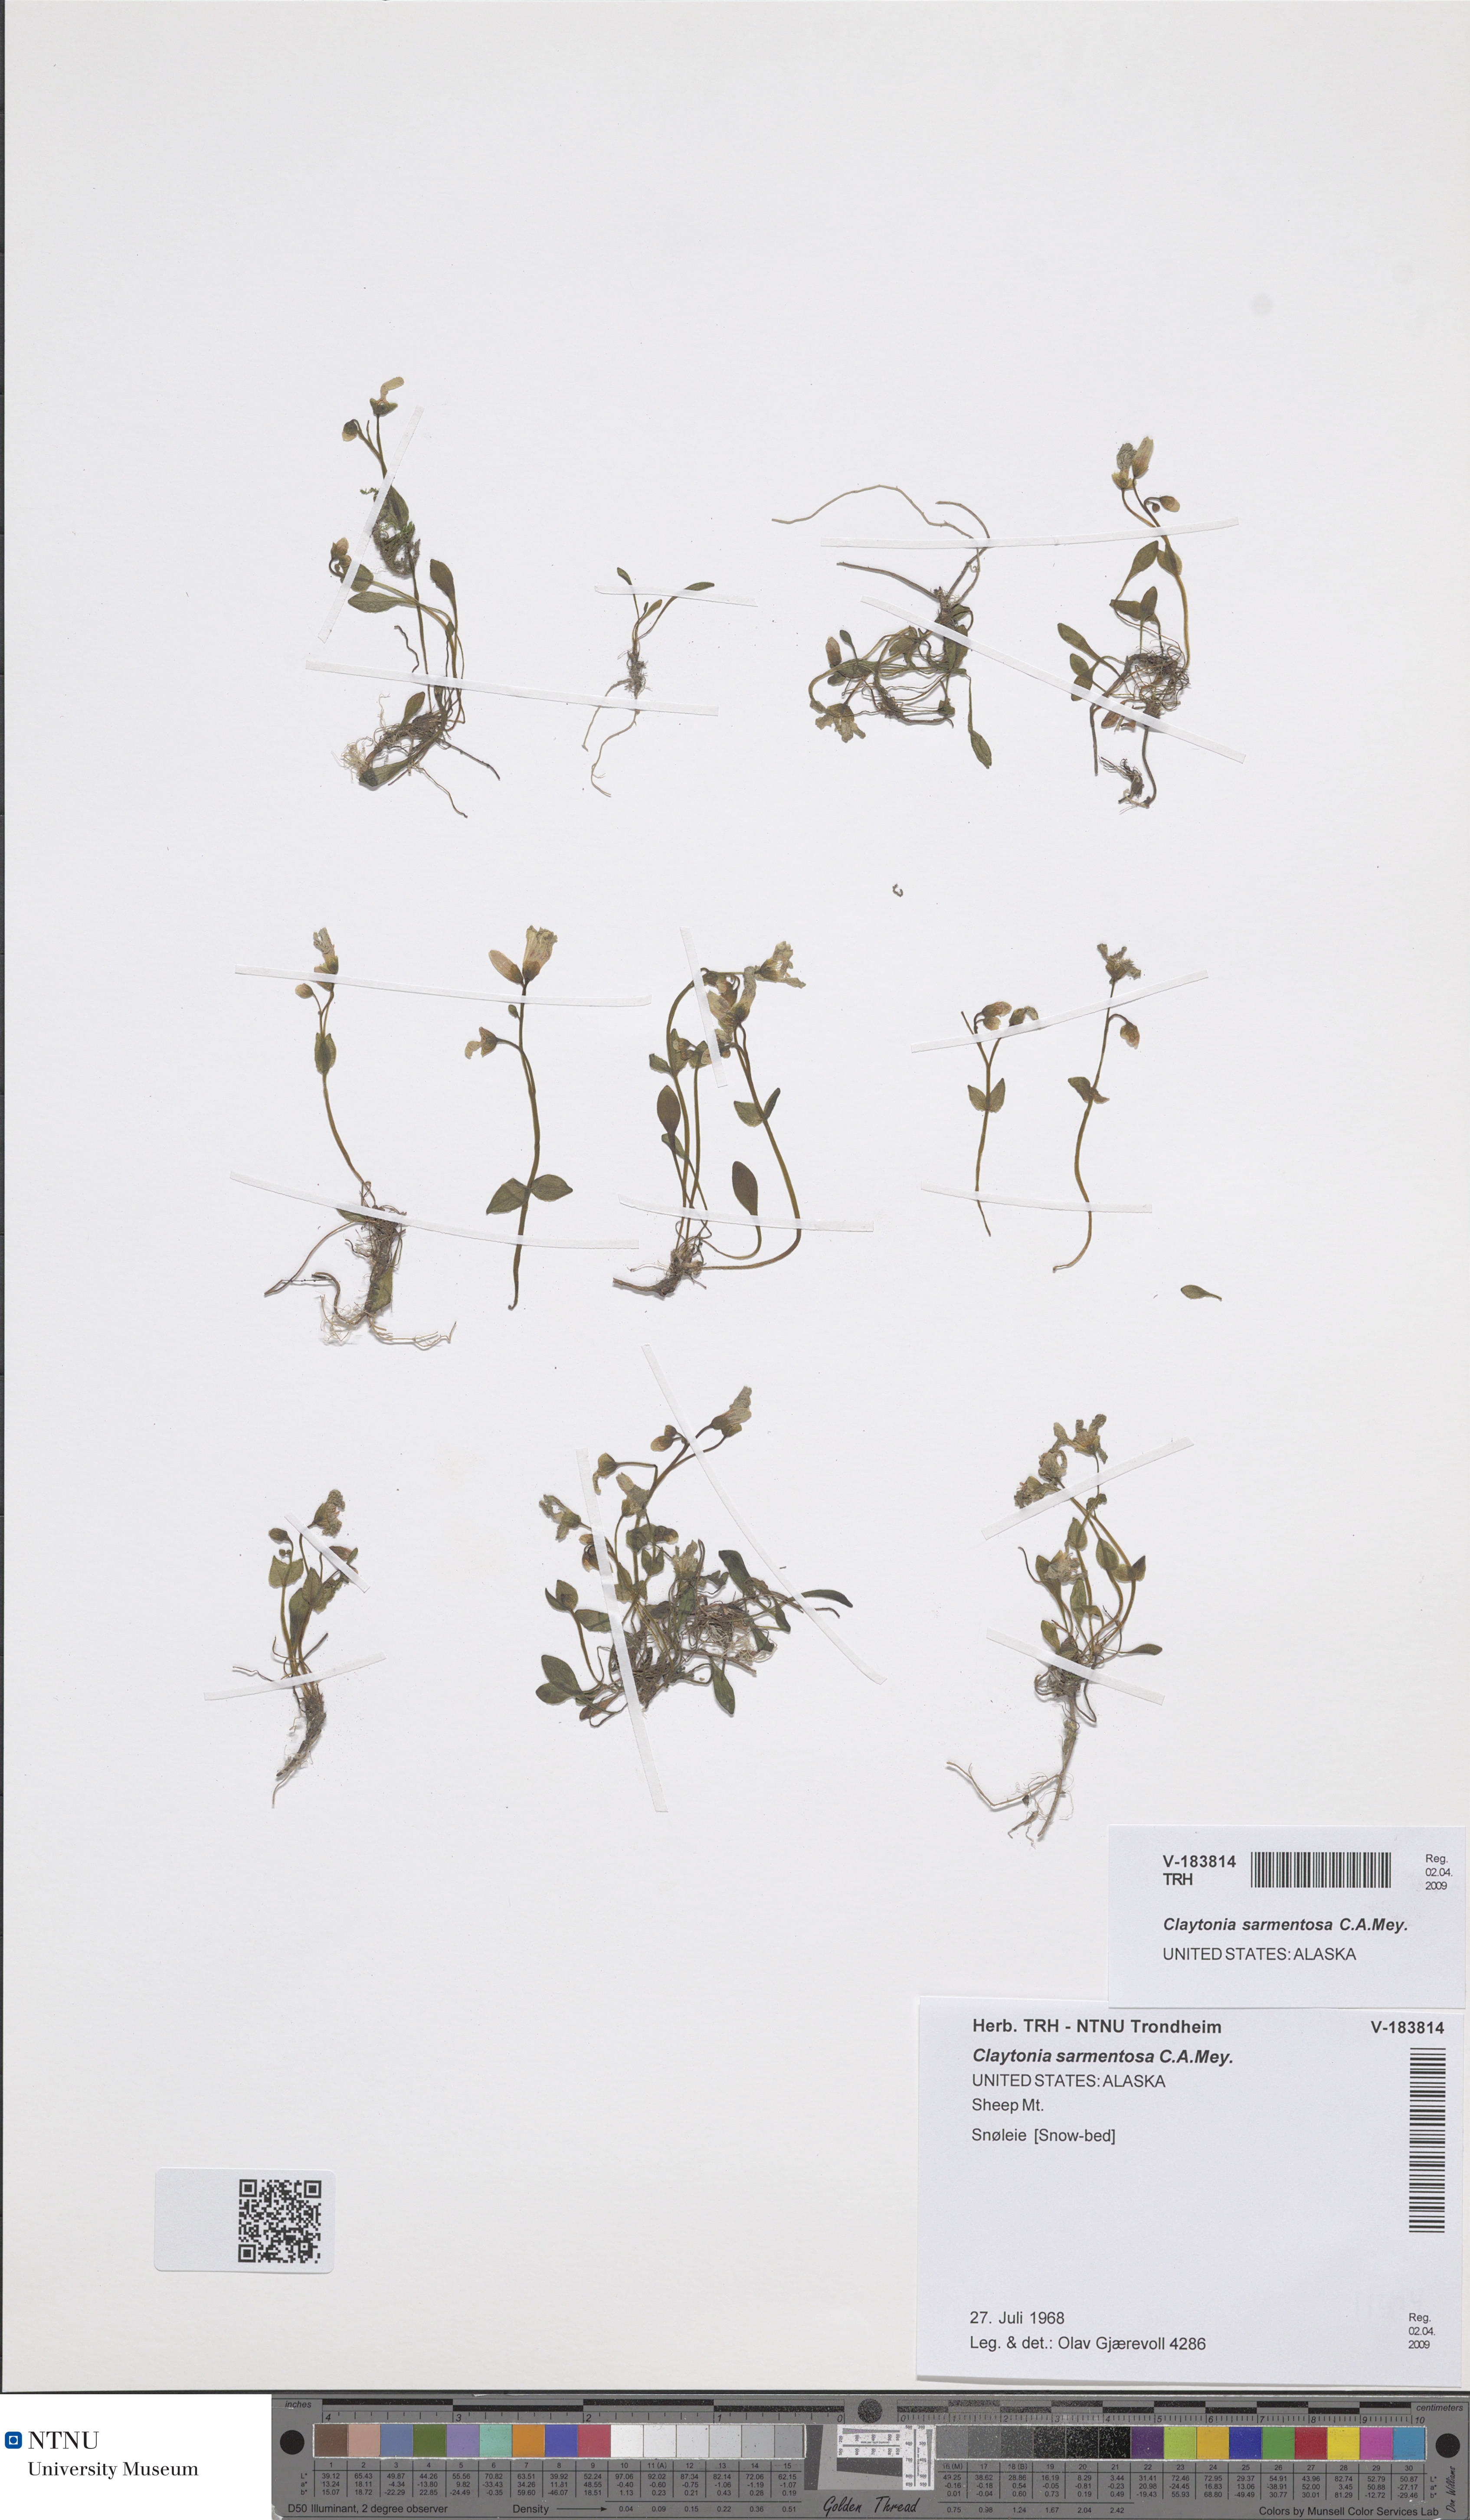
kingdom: Plantae
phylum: Tracheophyta
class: Magnoliopsida
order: Caryophyllales
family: Montiaceae
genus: Claytonia
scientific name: Claytonia sarmentosa
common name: Alaska spring beauty
